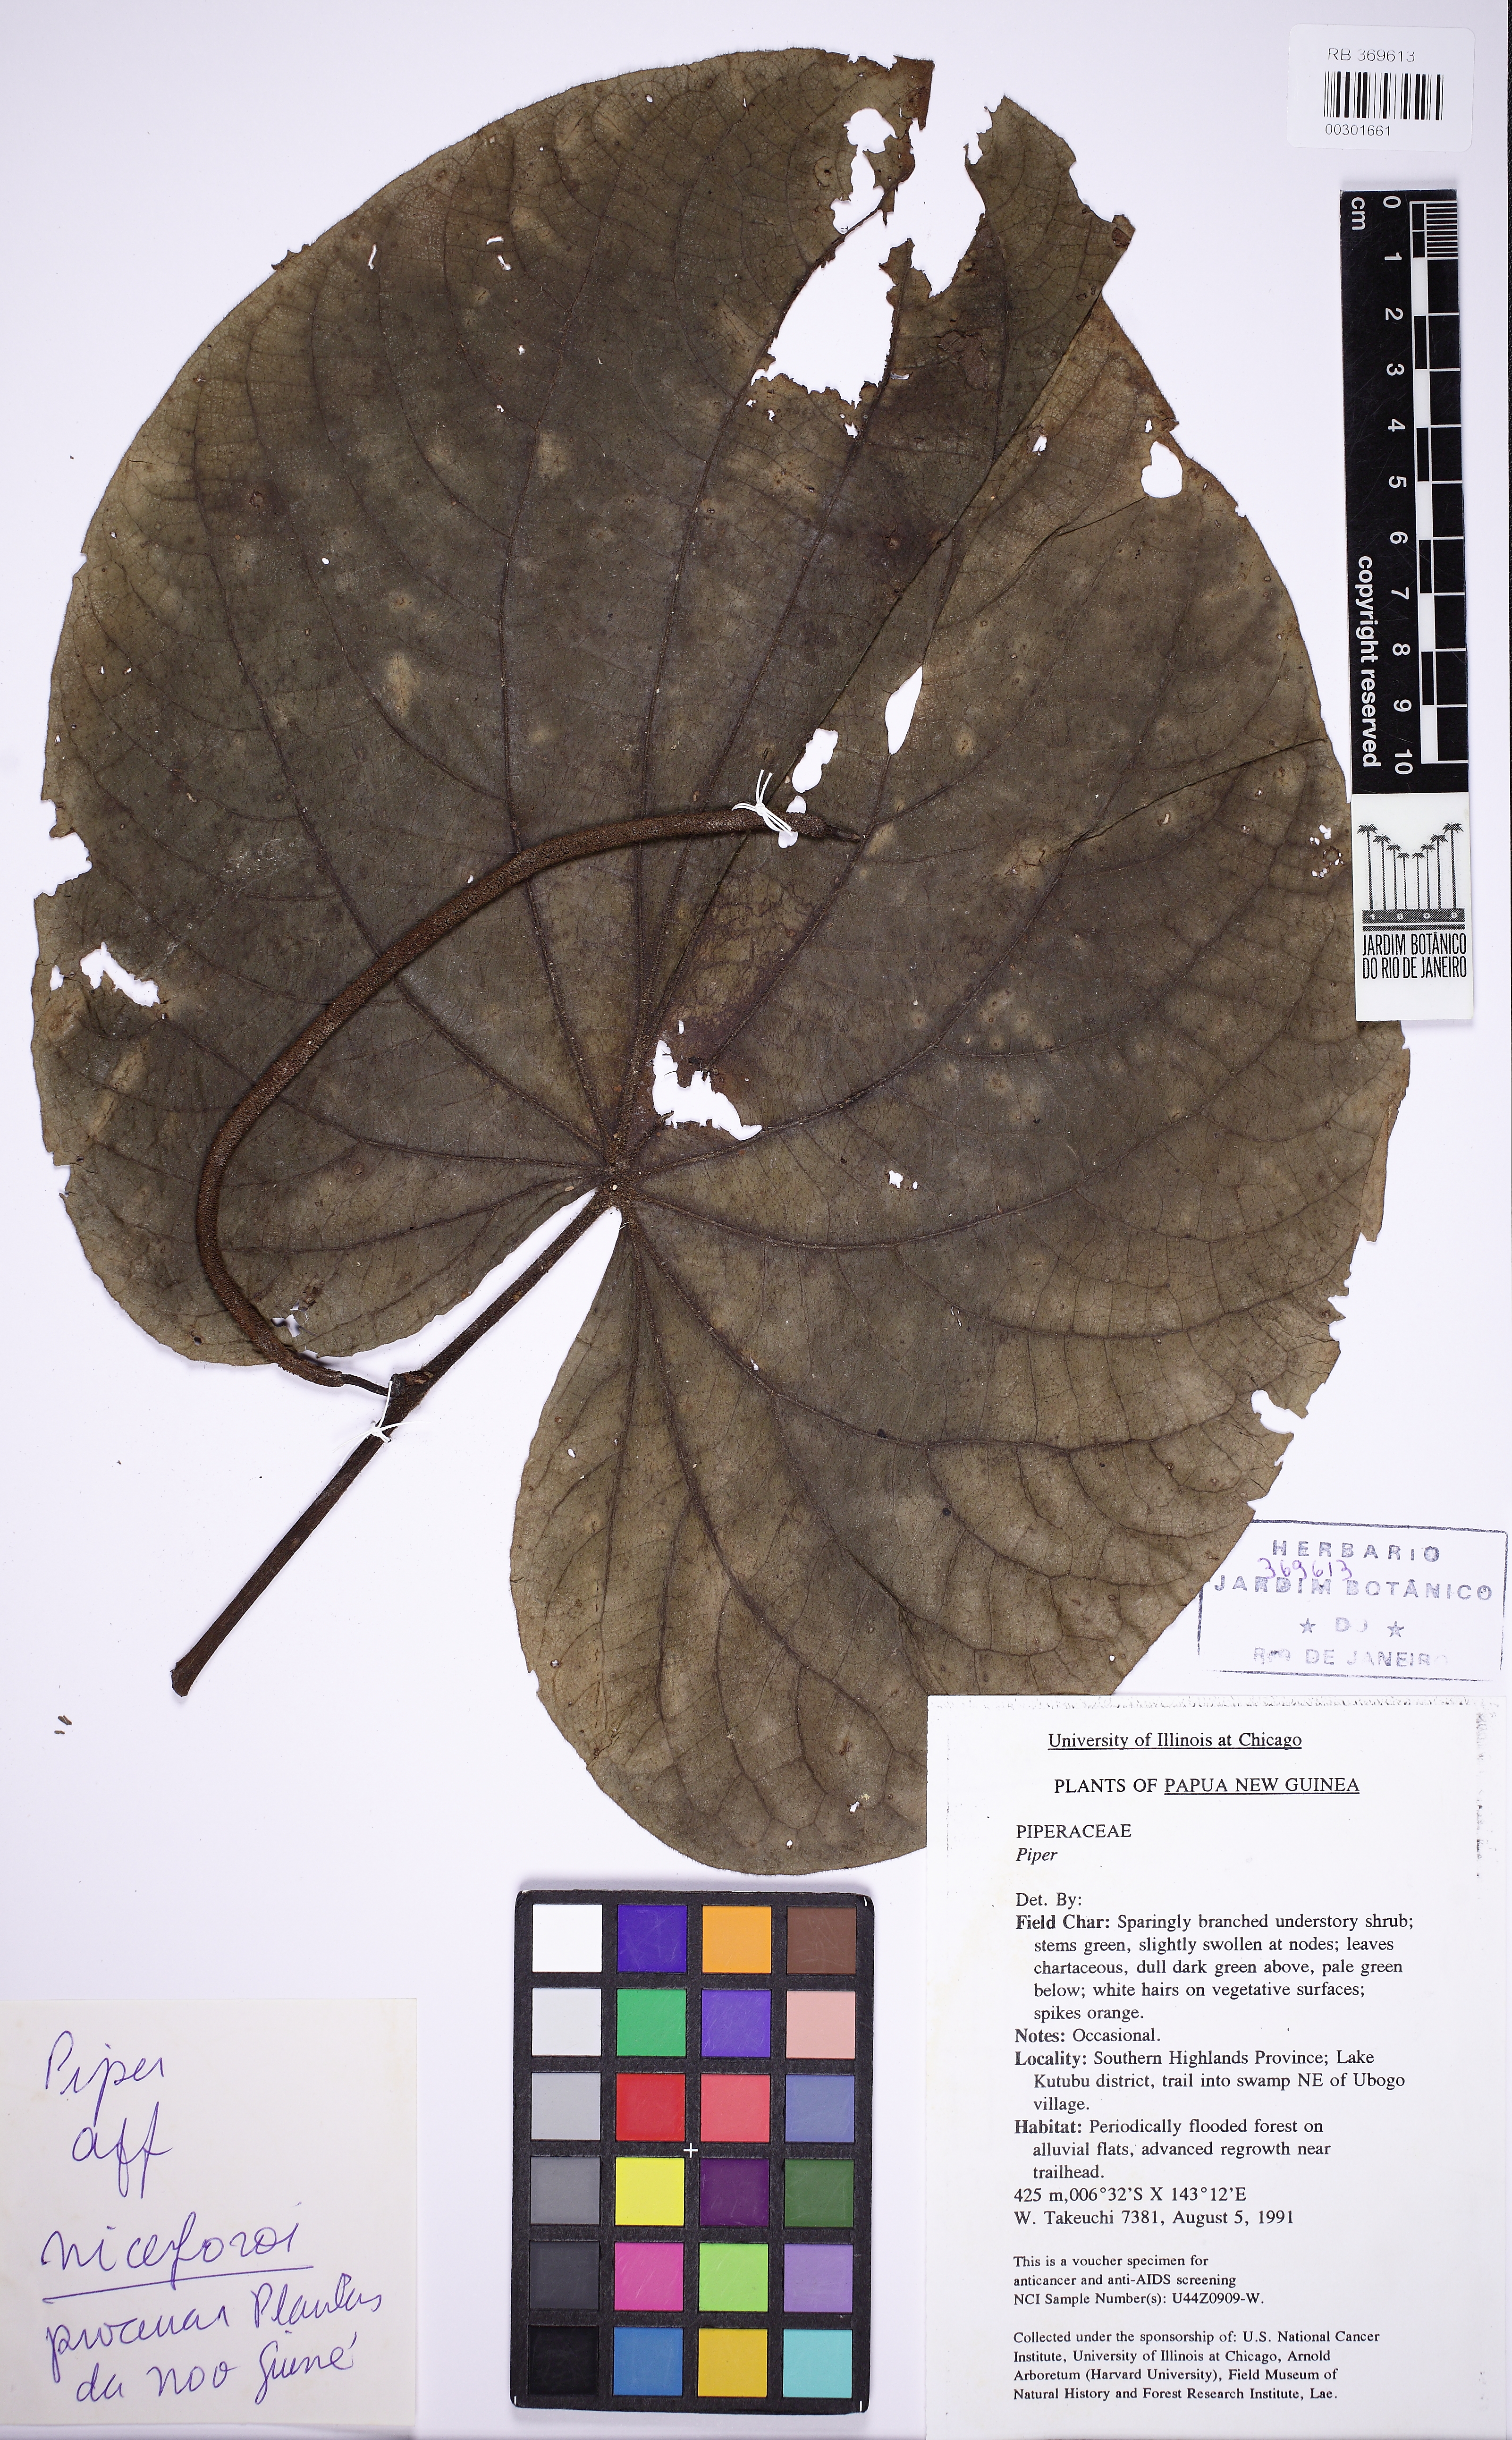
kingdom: Plantae
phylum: Tracheophyta
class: Magnoliopsida
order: Piperales
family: Piperaceae
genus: Piper
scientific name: Piper marginatum
